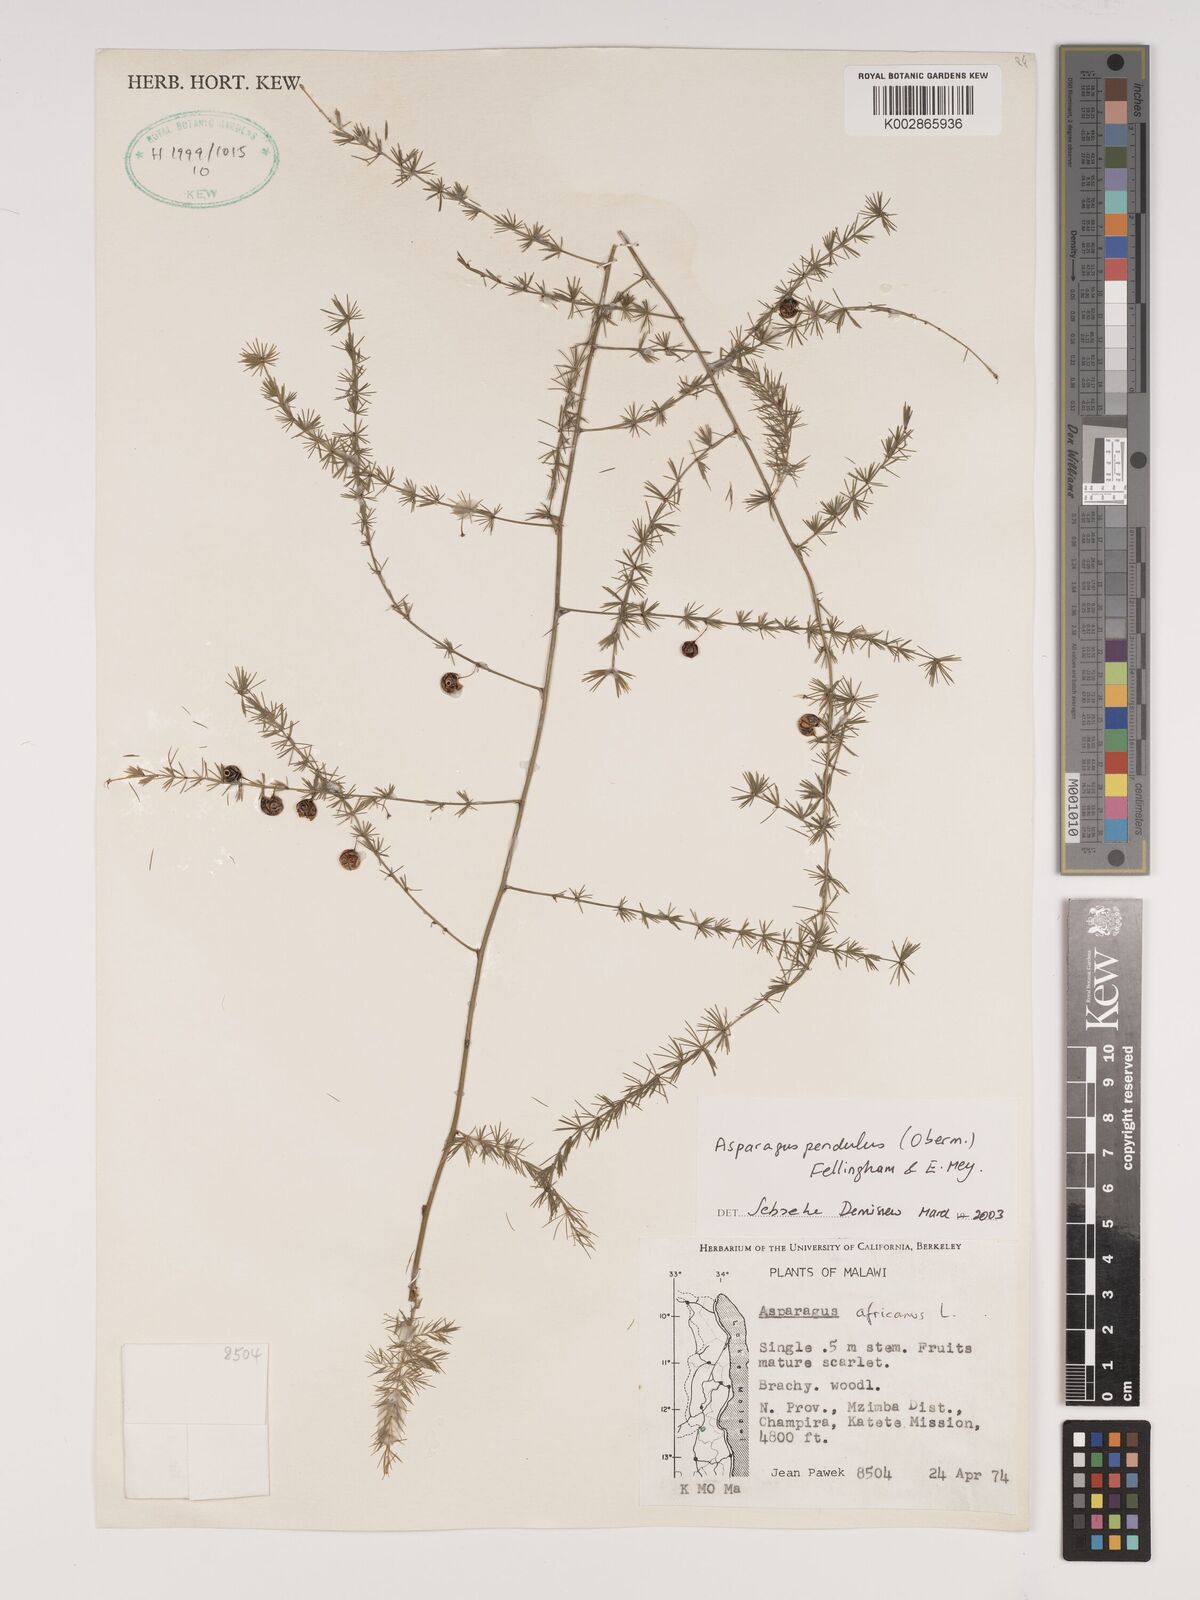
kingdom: Plantae
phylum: Tracheophyta
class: Liliopsida
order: Asparagales
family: Asparagaceae
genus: Asparagus
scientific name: Asparagus pendulus
